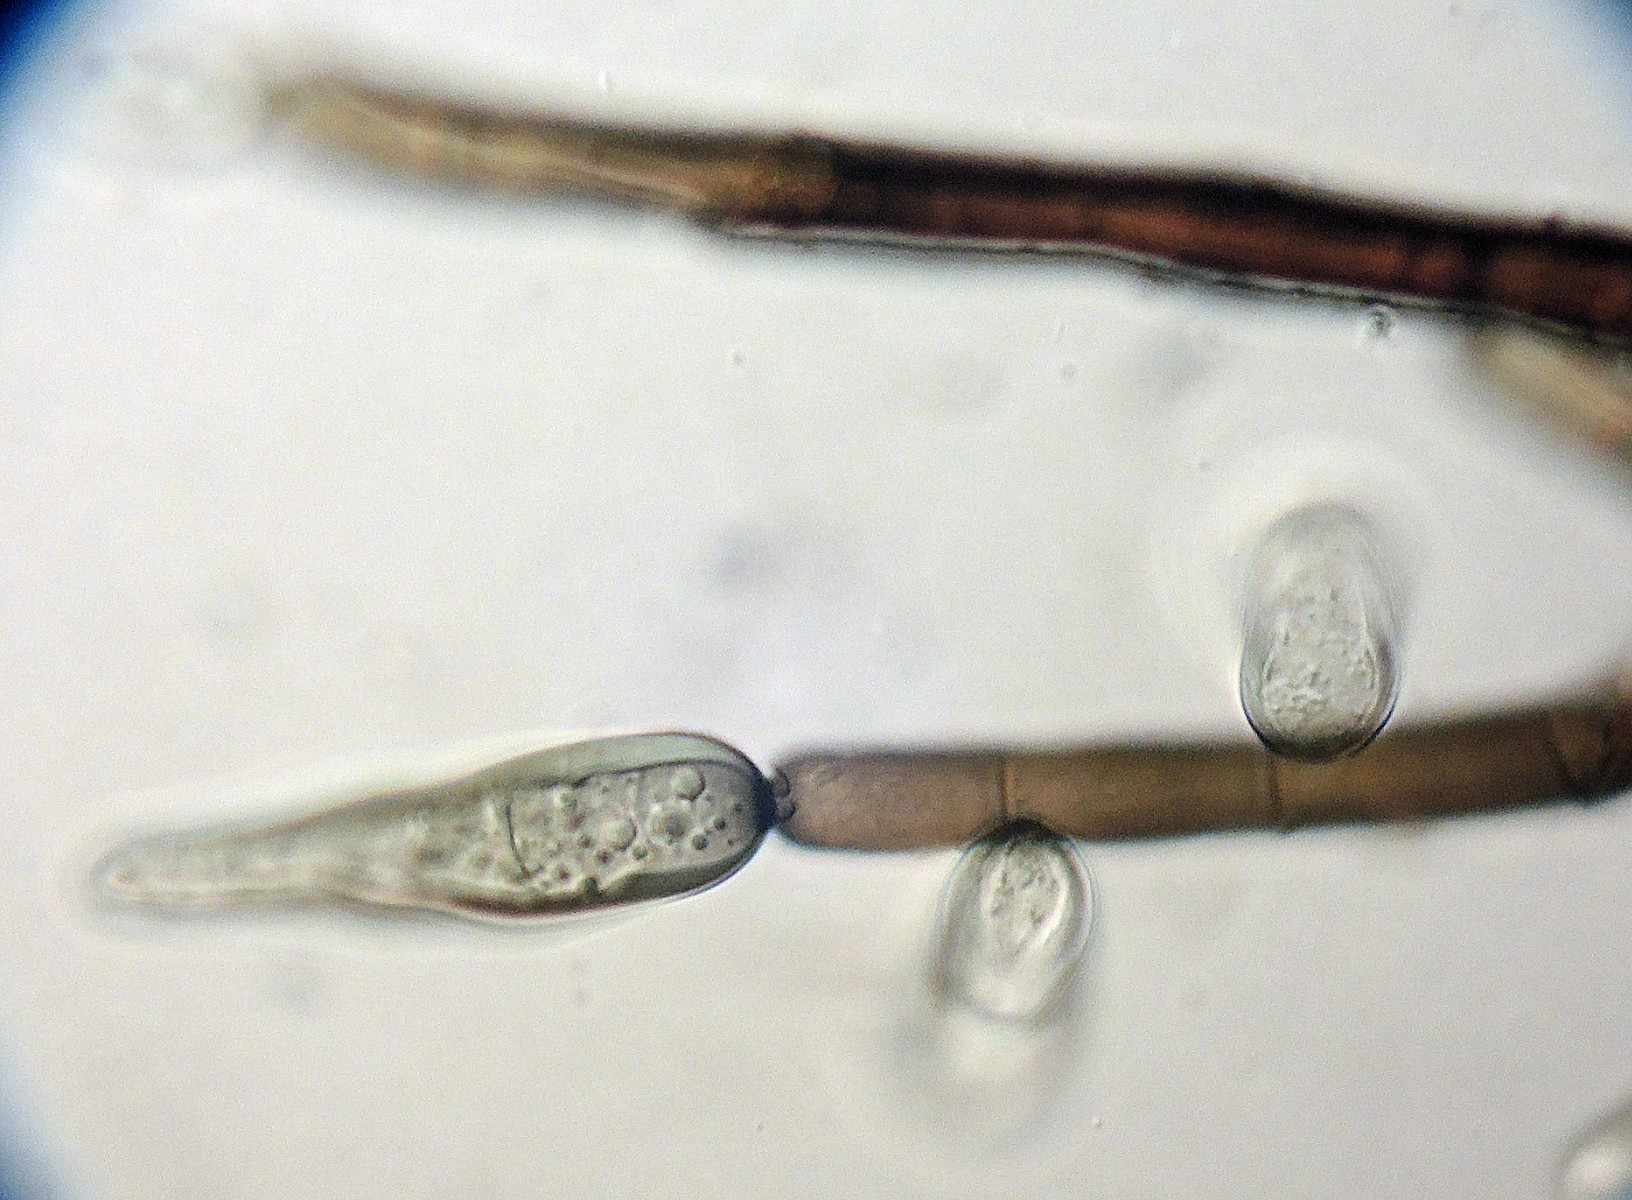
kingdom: Fungi
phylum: Ascomycota
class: Dothideomycetes
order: Pleosporales
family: Massarinaceae
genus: Helminthosporium
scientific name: Helminthosporium velutinum
